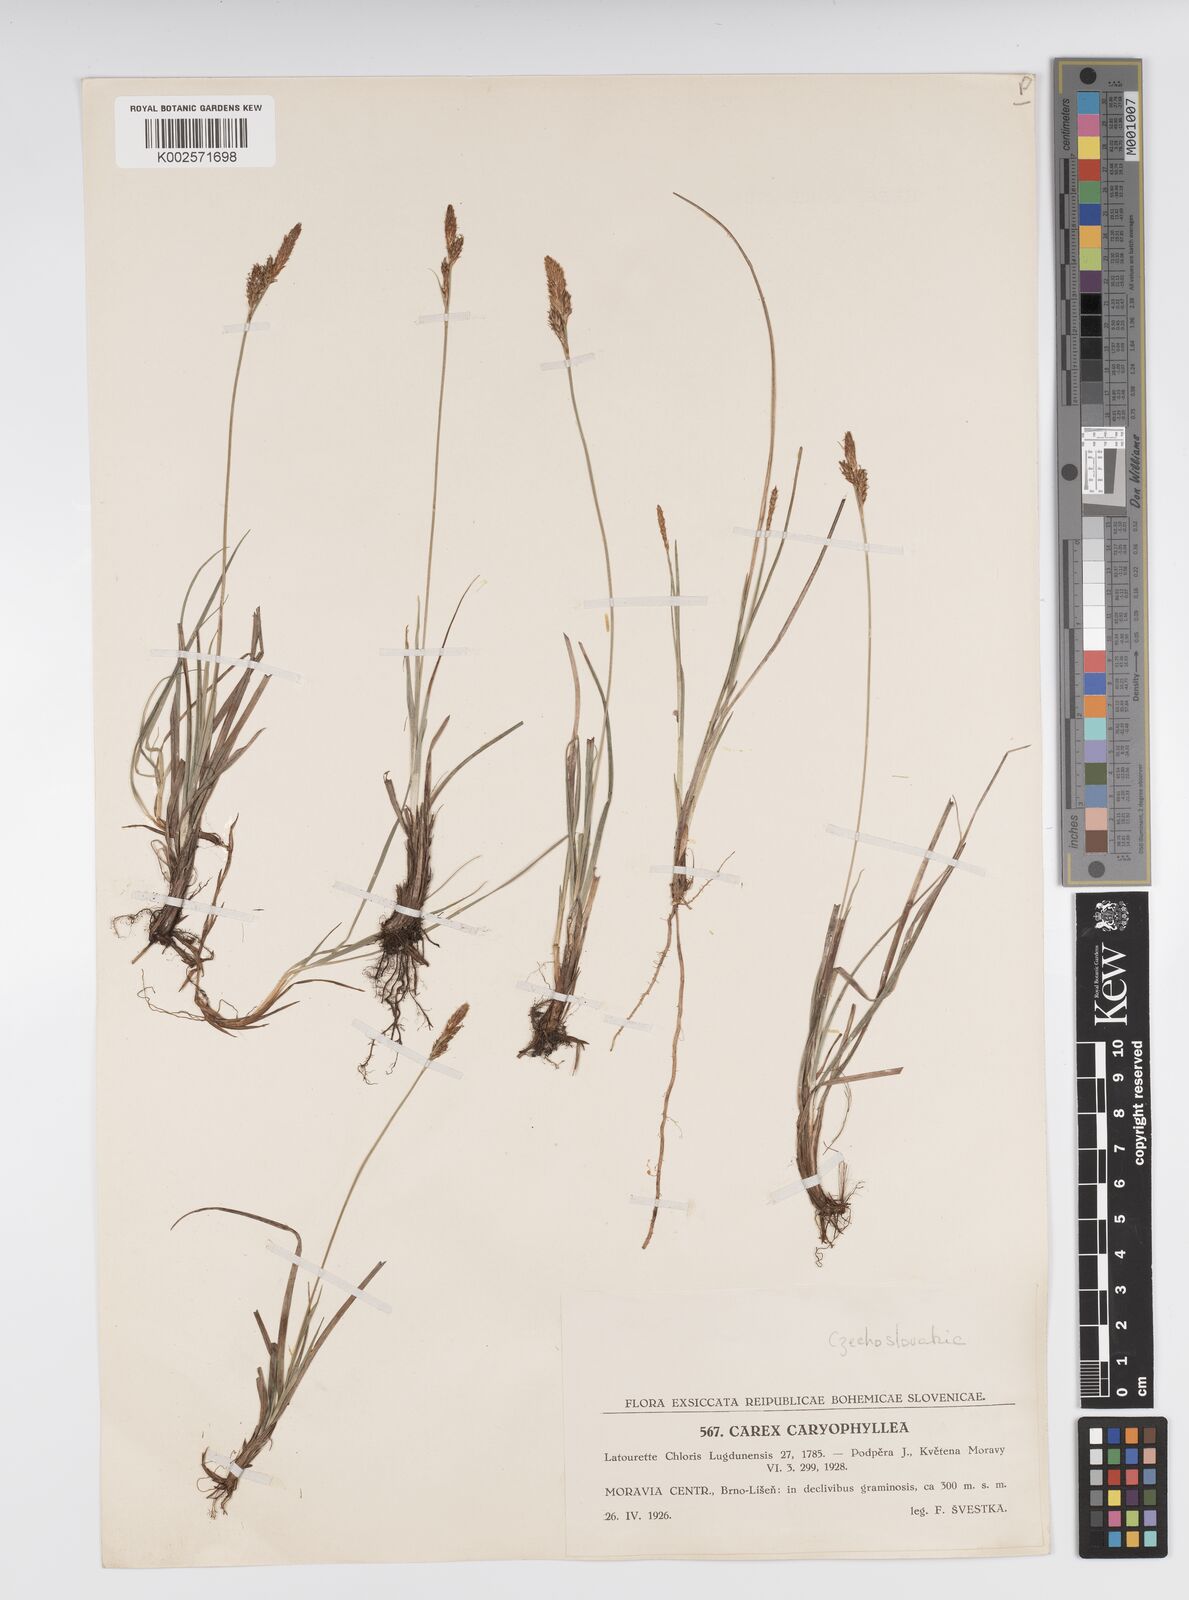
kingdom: Plantae
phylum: Tracheophyta
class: Liliopsida
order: Poales
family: Cyperaceae
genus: Carex
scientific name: Carex caryophyllea
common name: Spring sedge
